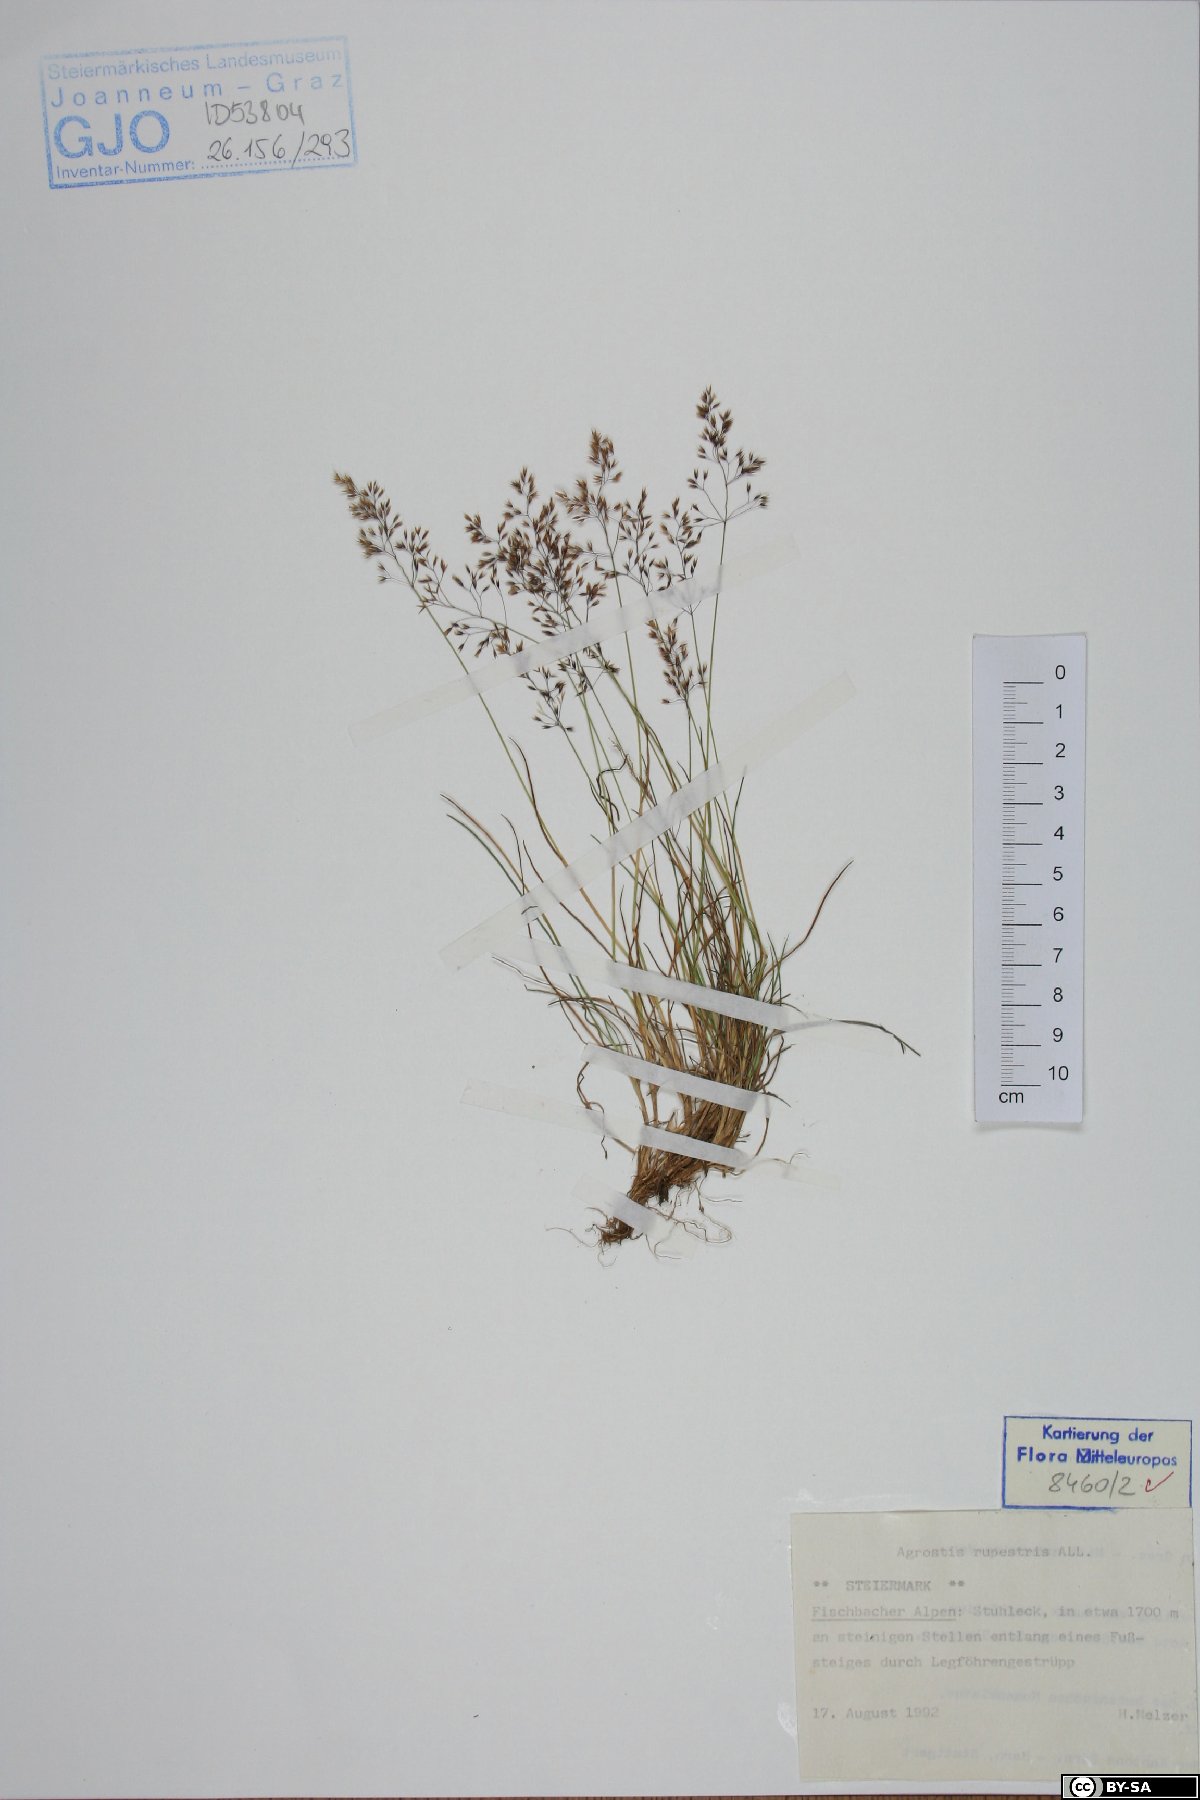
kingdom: Plantae
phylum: Tracheophyta
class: Liliopsida
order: Poales
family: Poaceae
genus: Agrostis
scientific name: Agrostis rupestris
